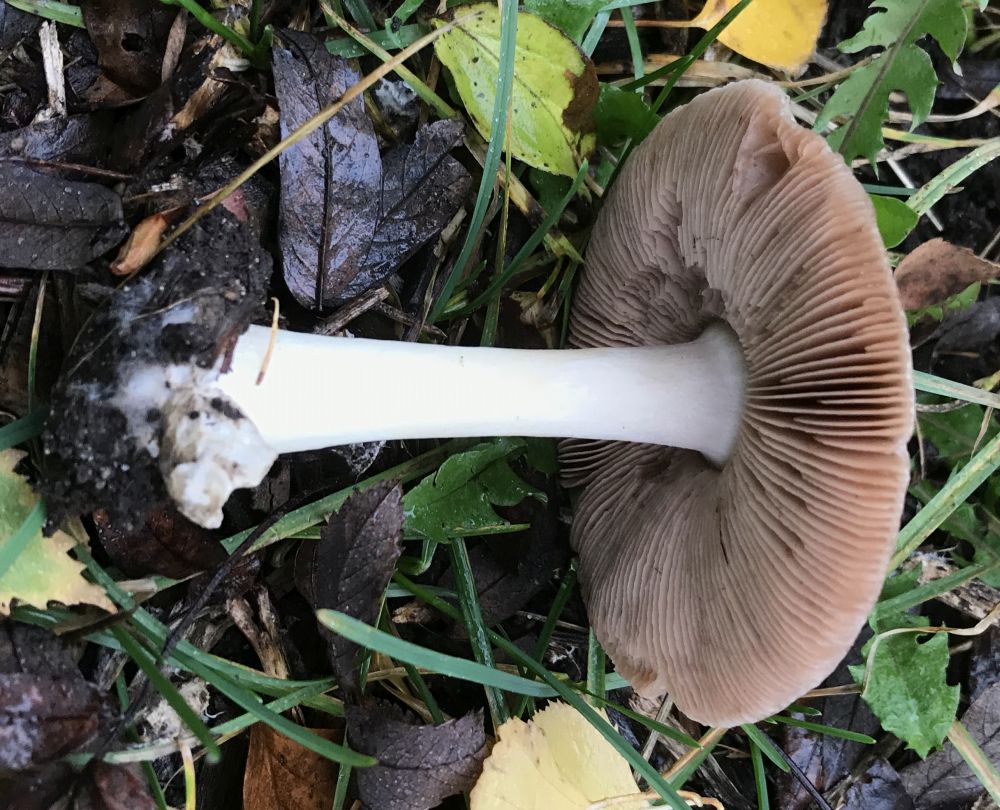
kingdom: Fungi
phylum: Basidiomycota
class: Agaricomycetes
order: Agaricales
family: Pluteaceae
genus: Volvopluteus
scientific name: Volvopluteus gloiocephalus
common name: høj posesvamp
